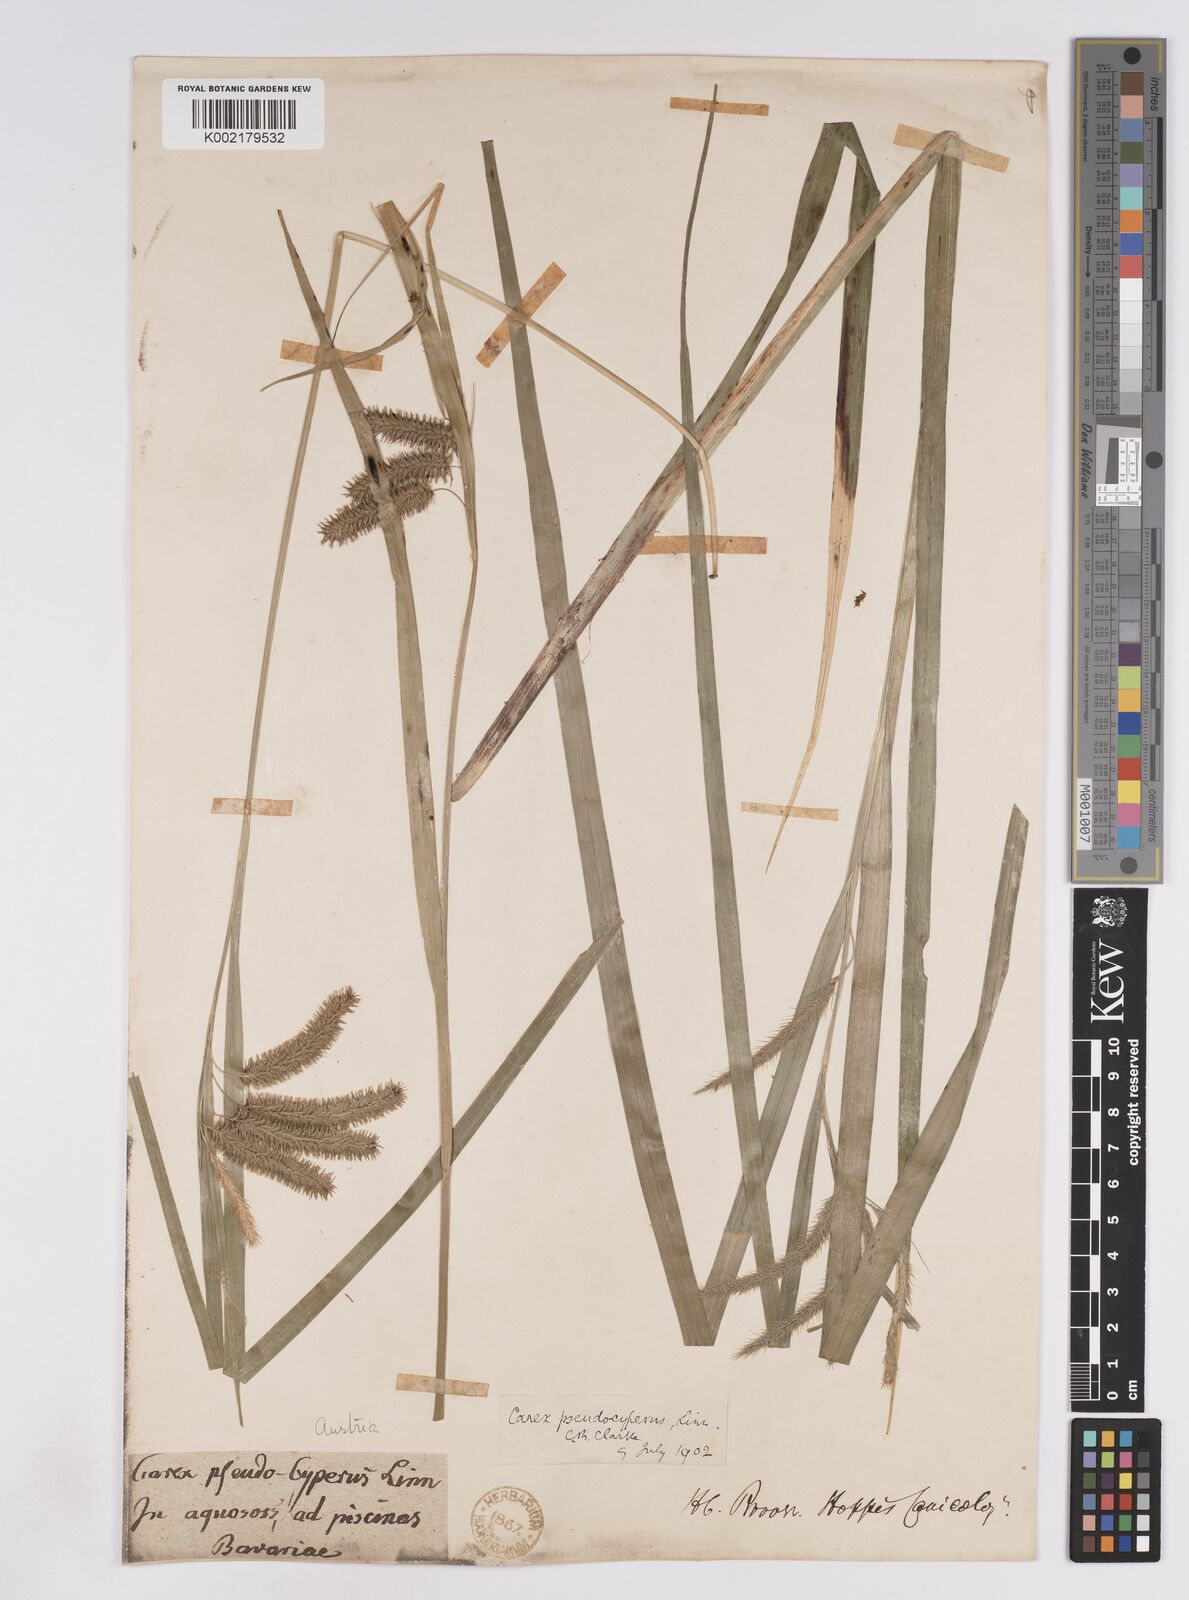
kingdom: Plantae
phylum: Tracheophyta
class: Liliopsida
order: Poales
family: Cyperaceae
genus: Carex
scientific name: Carex pseudocyperus
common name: Cyperus sedge
